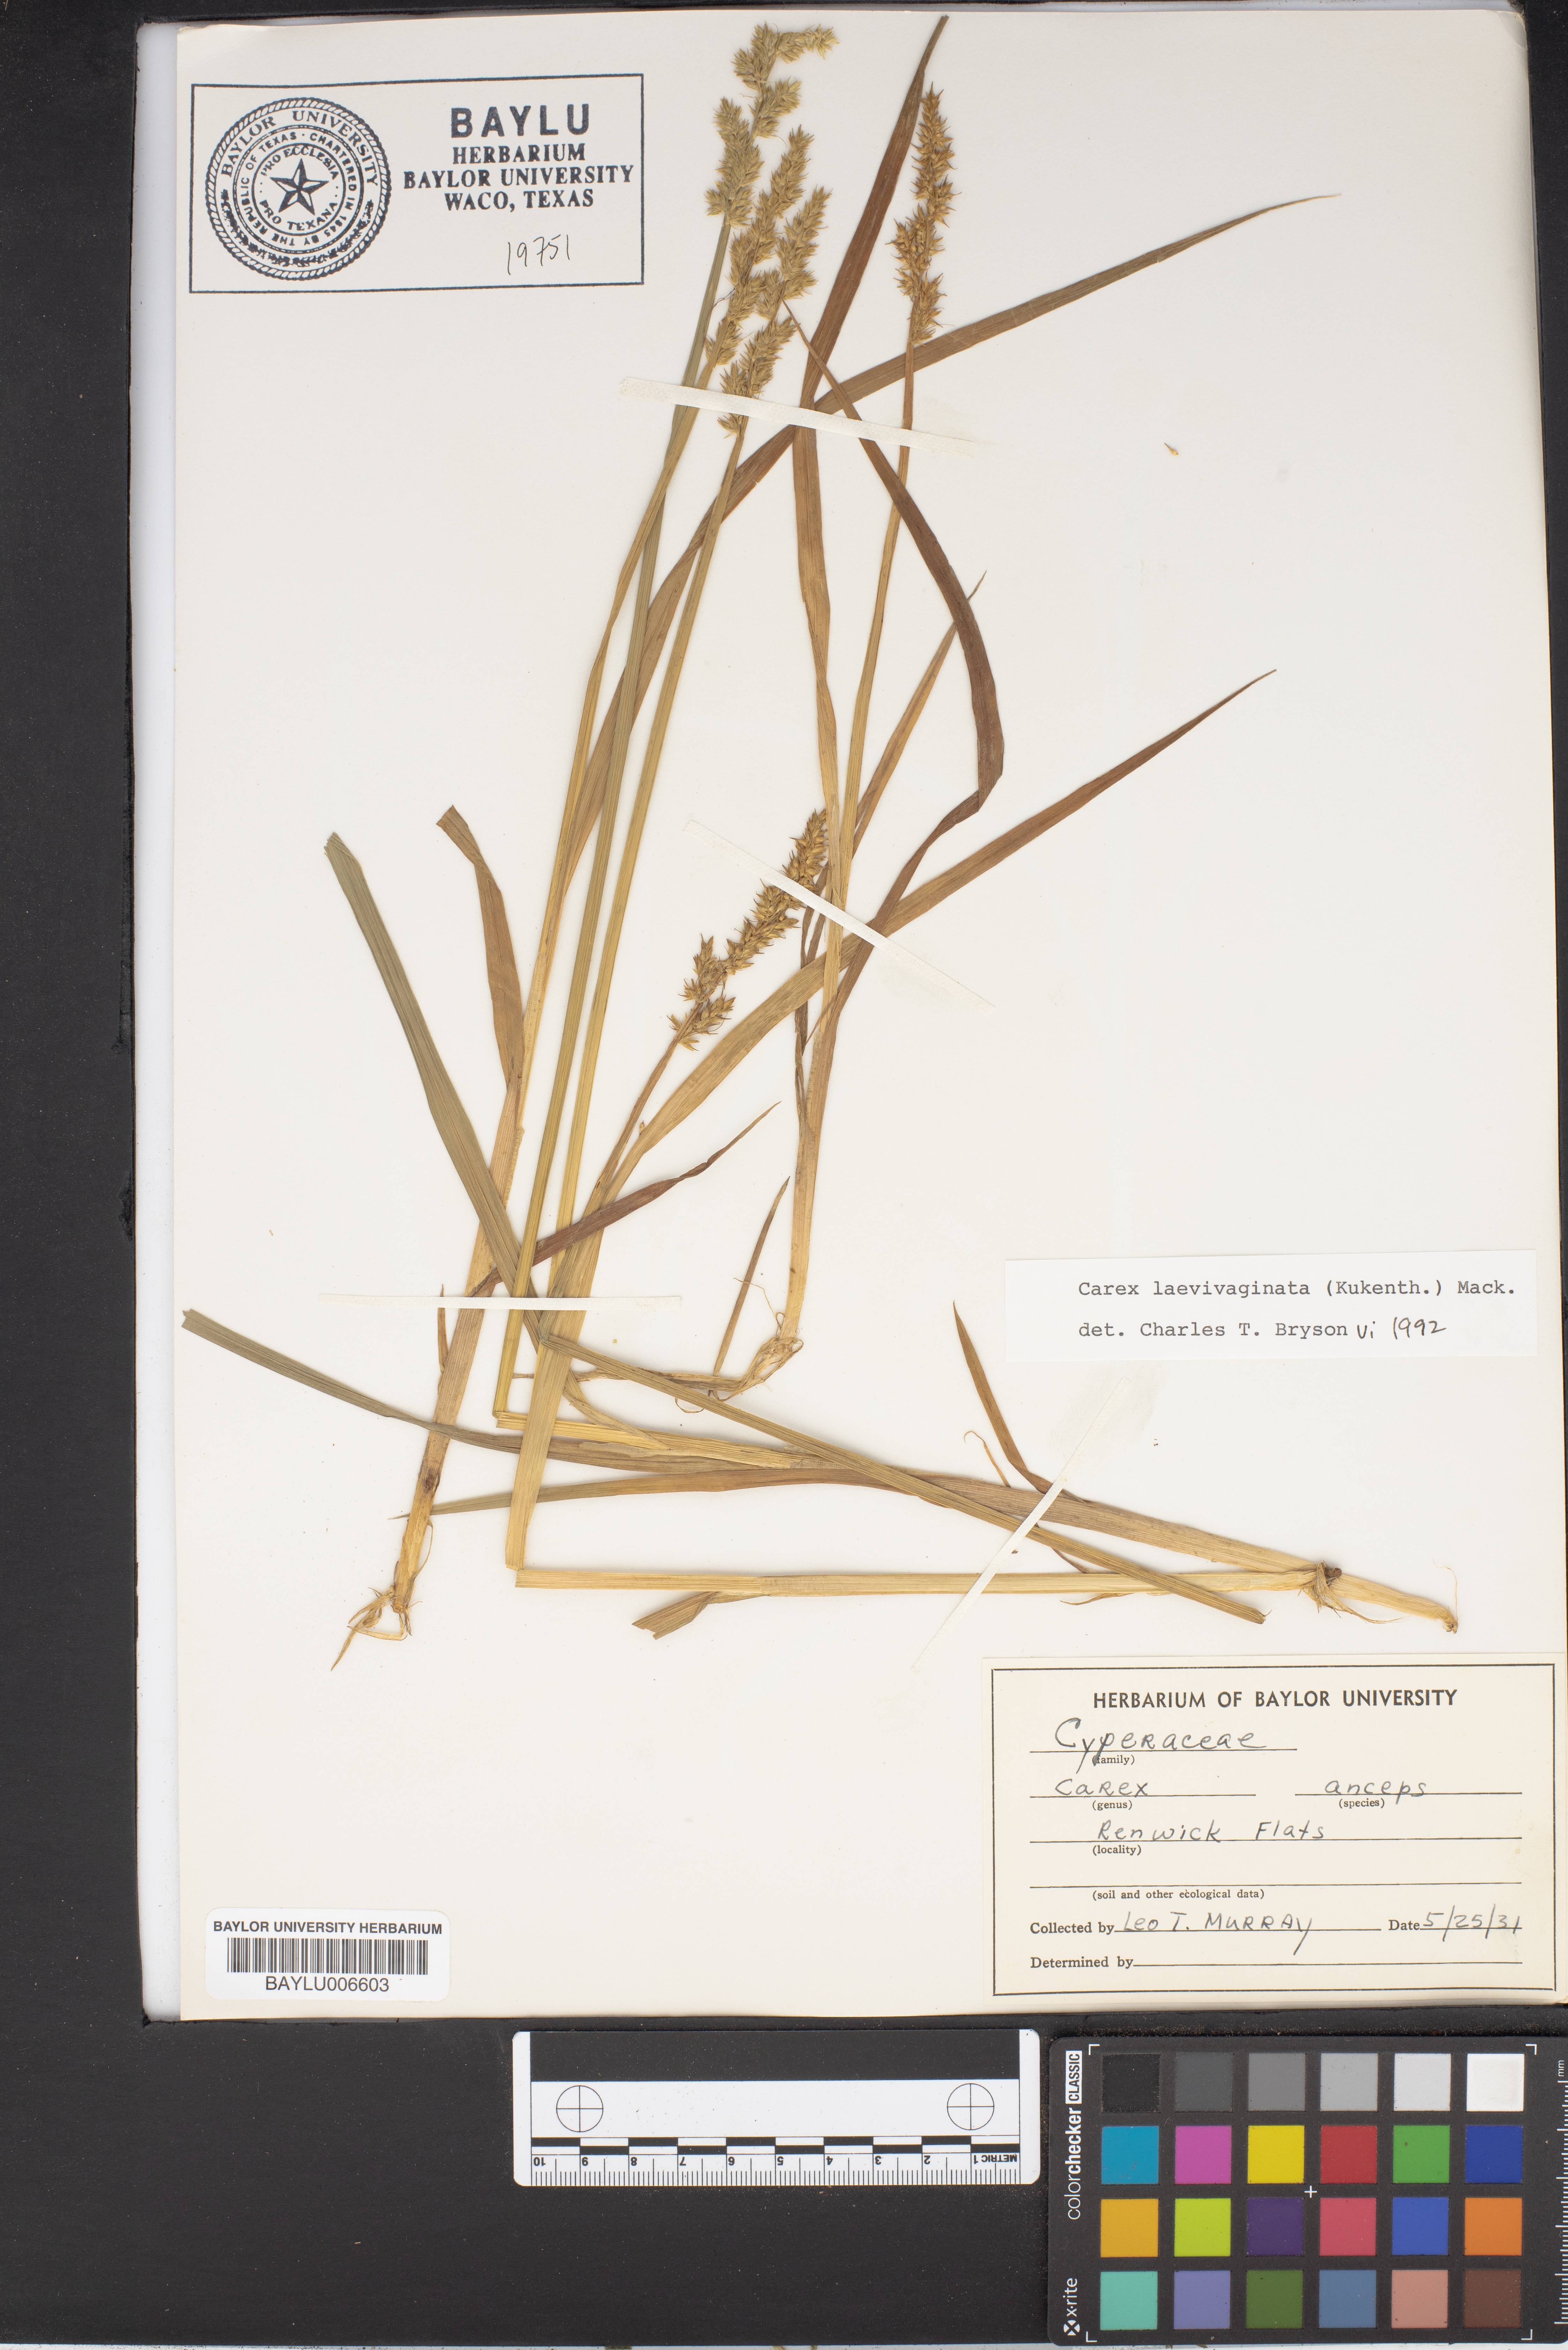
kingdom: Plantae
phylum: Tracheophyta
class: Liliopsida
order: Poales
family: Cyperaceae
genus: Carex
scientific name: Carex laxiflora
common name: Beech wood sedge
